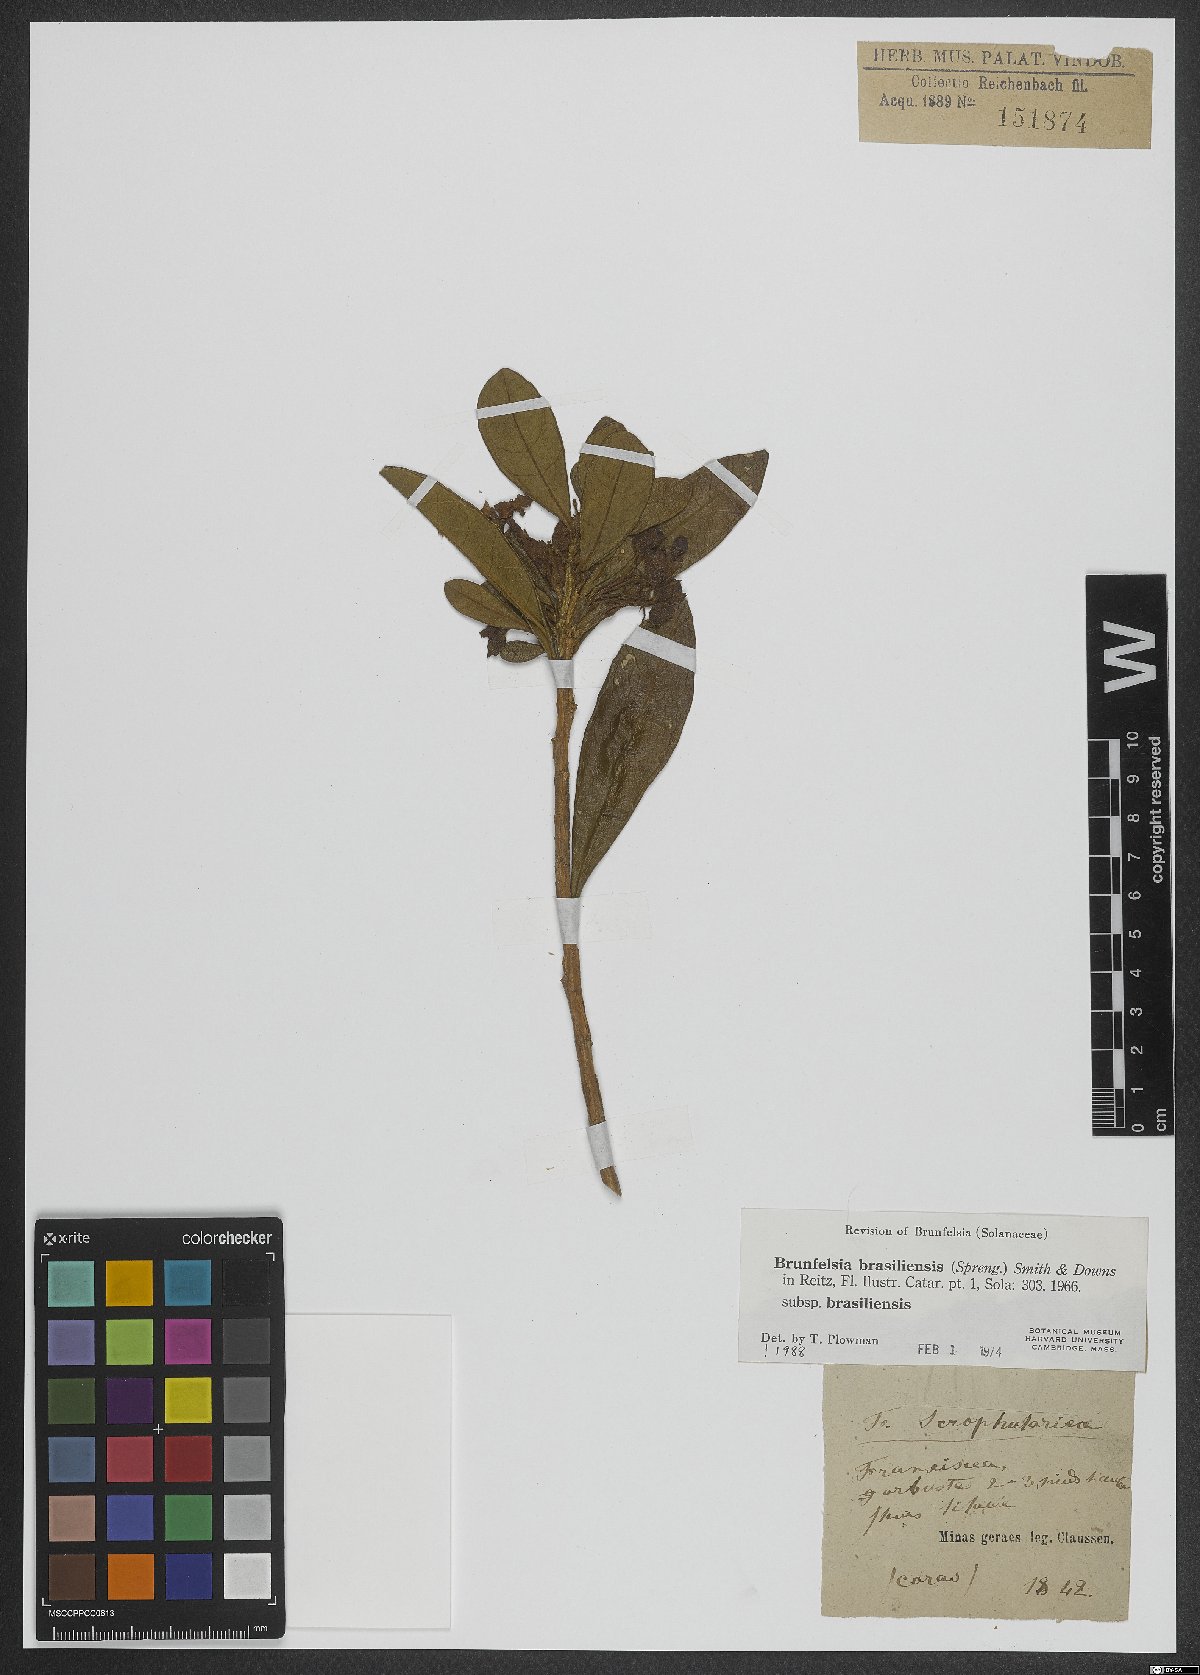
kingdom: Plantae
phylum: Tracheophyta
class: Magnoliopsida
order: Solanales
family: Solanaceae
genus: Brunfelsia
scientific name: Brunfelsia brasiliensis
